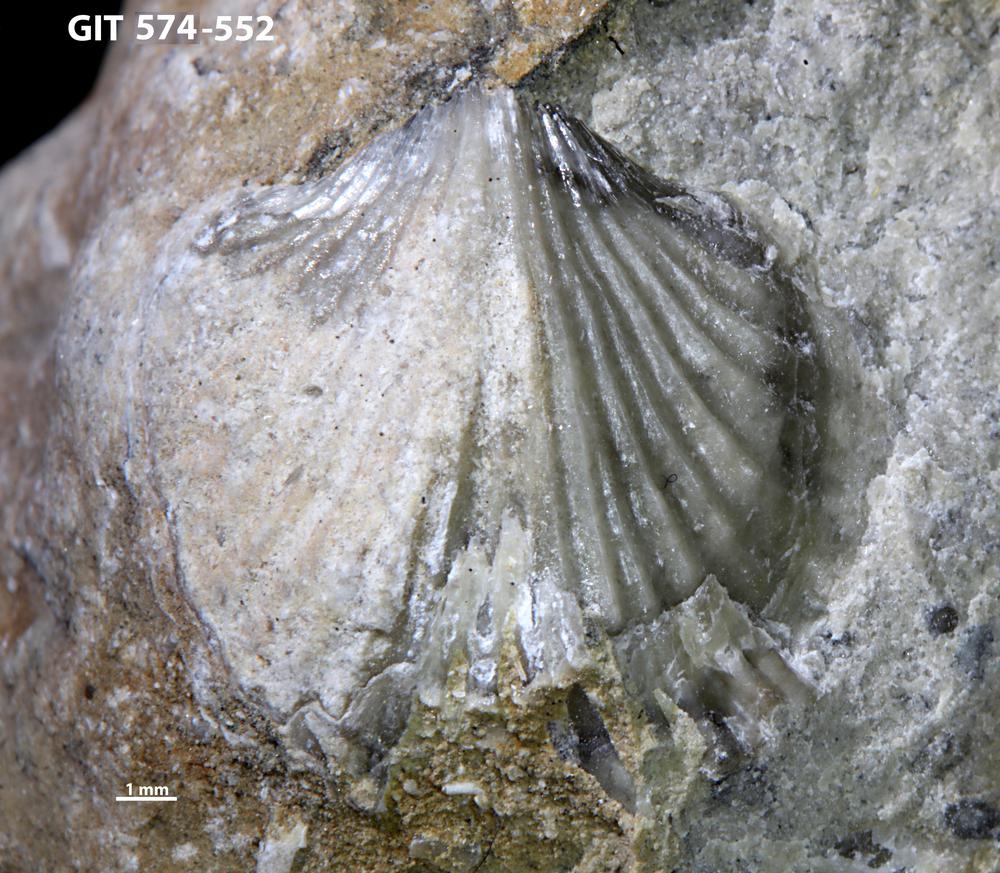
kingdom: Animalia
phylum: Brachiopoda
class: Rhynchonellata
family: Atrypinidae
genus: Eospirigerina
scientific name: Eospirigerina
